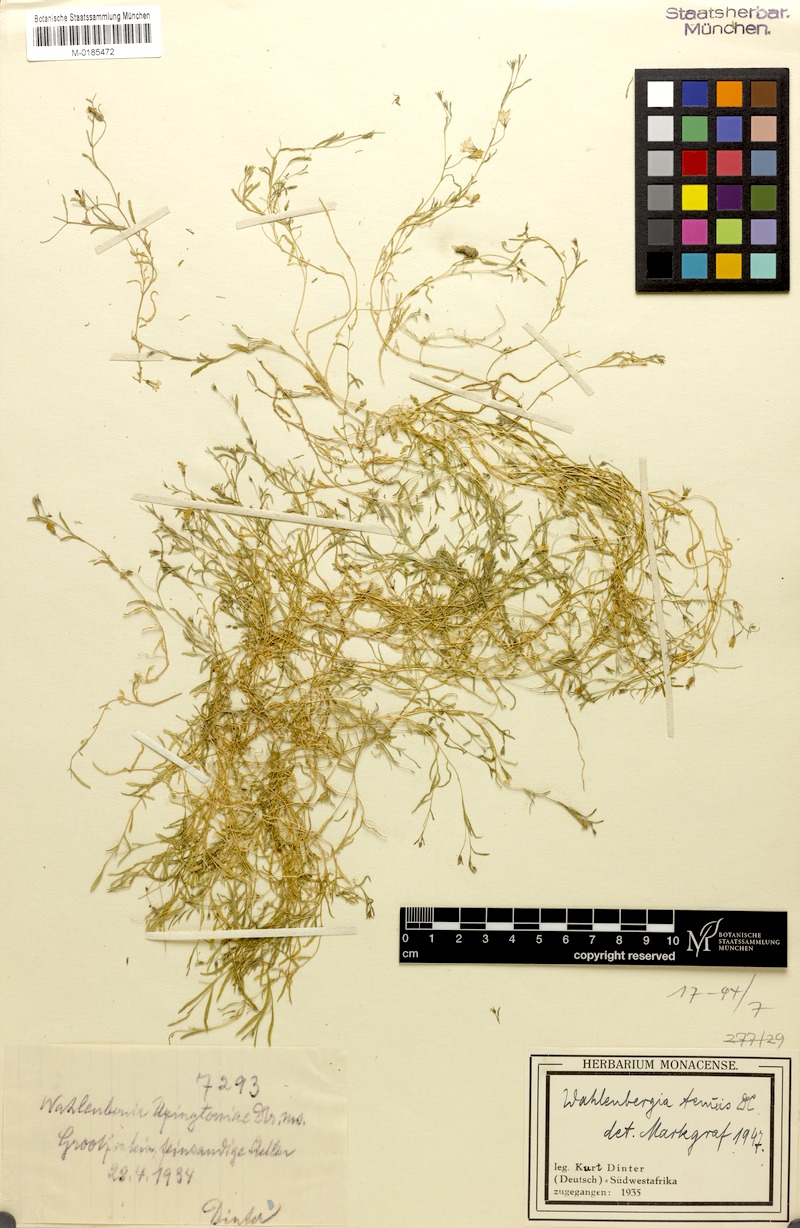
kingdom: Plantae
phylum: Tracheophyta
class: Magnoliopsida
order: Asterales
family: Campanulaceae
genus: Wahlenbergia
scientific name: Wahlenbergia tenuis
